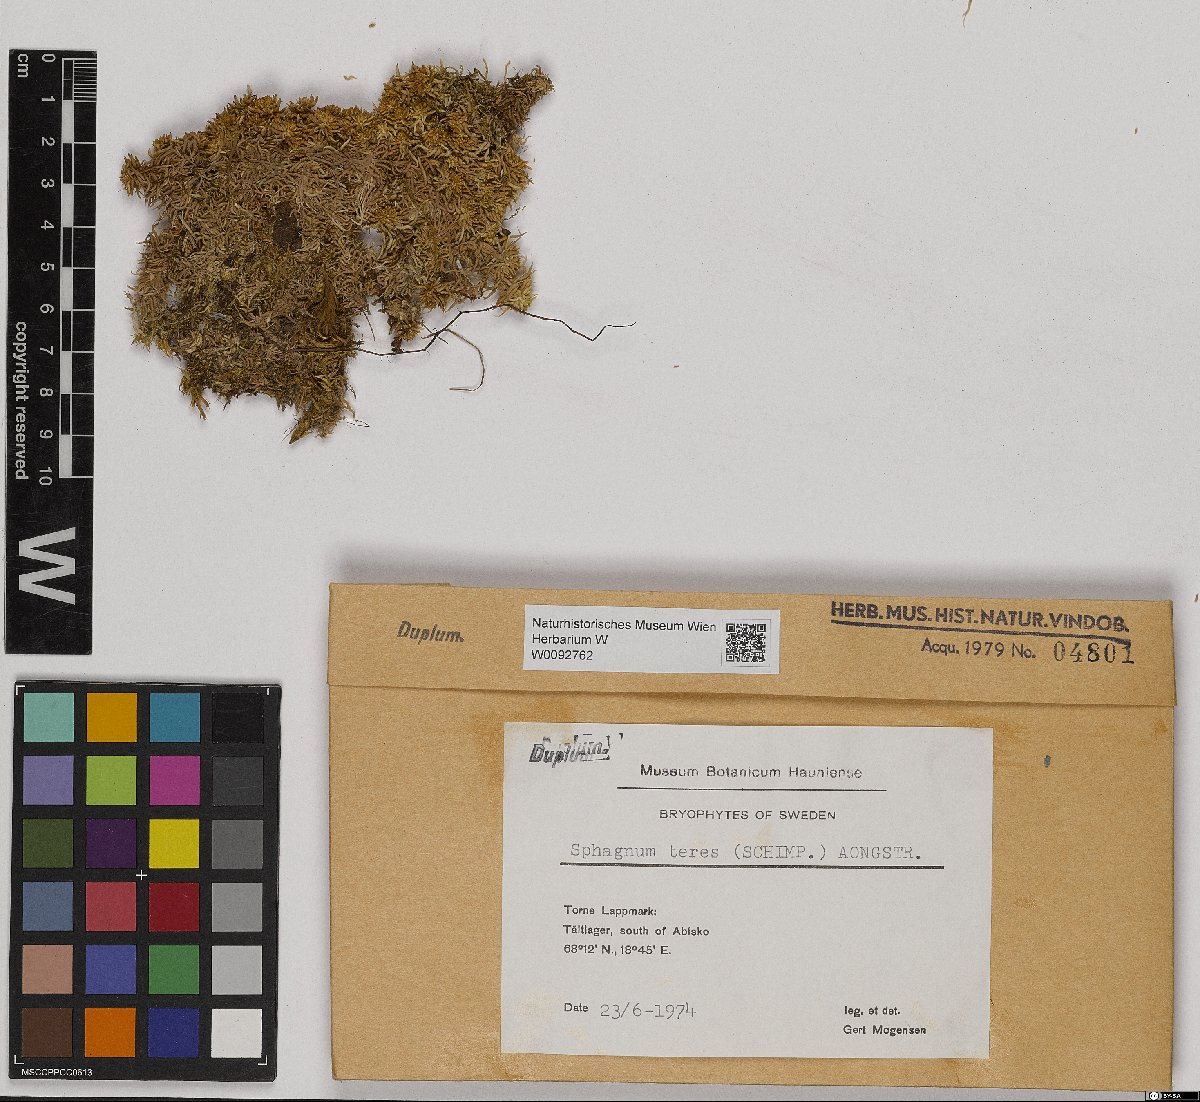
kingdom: Plantae
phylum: Bryophyta
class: Sphagnopsida
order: Sphagnales
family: Sphagnaceae
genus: Sphagnum
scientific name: Sphagnum teres
